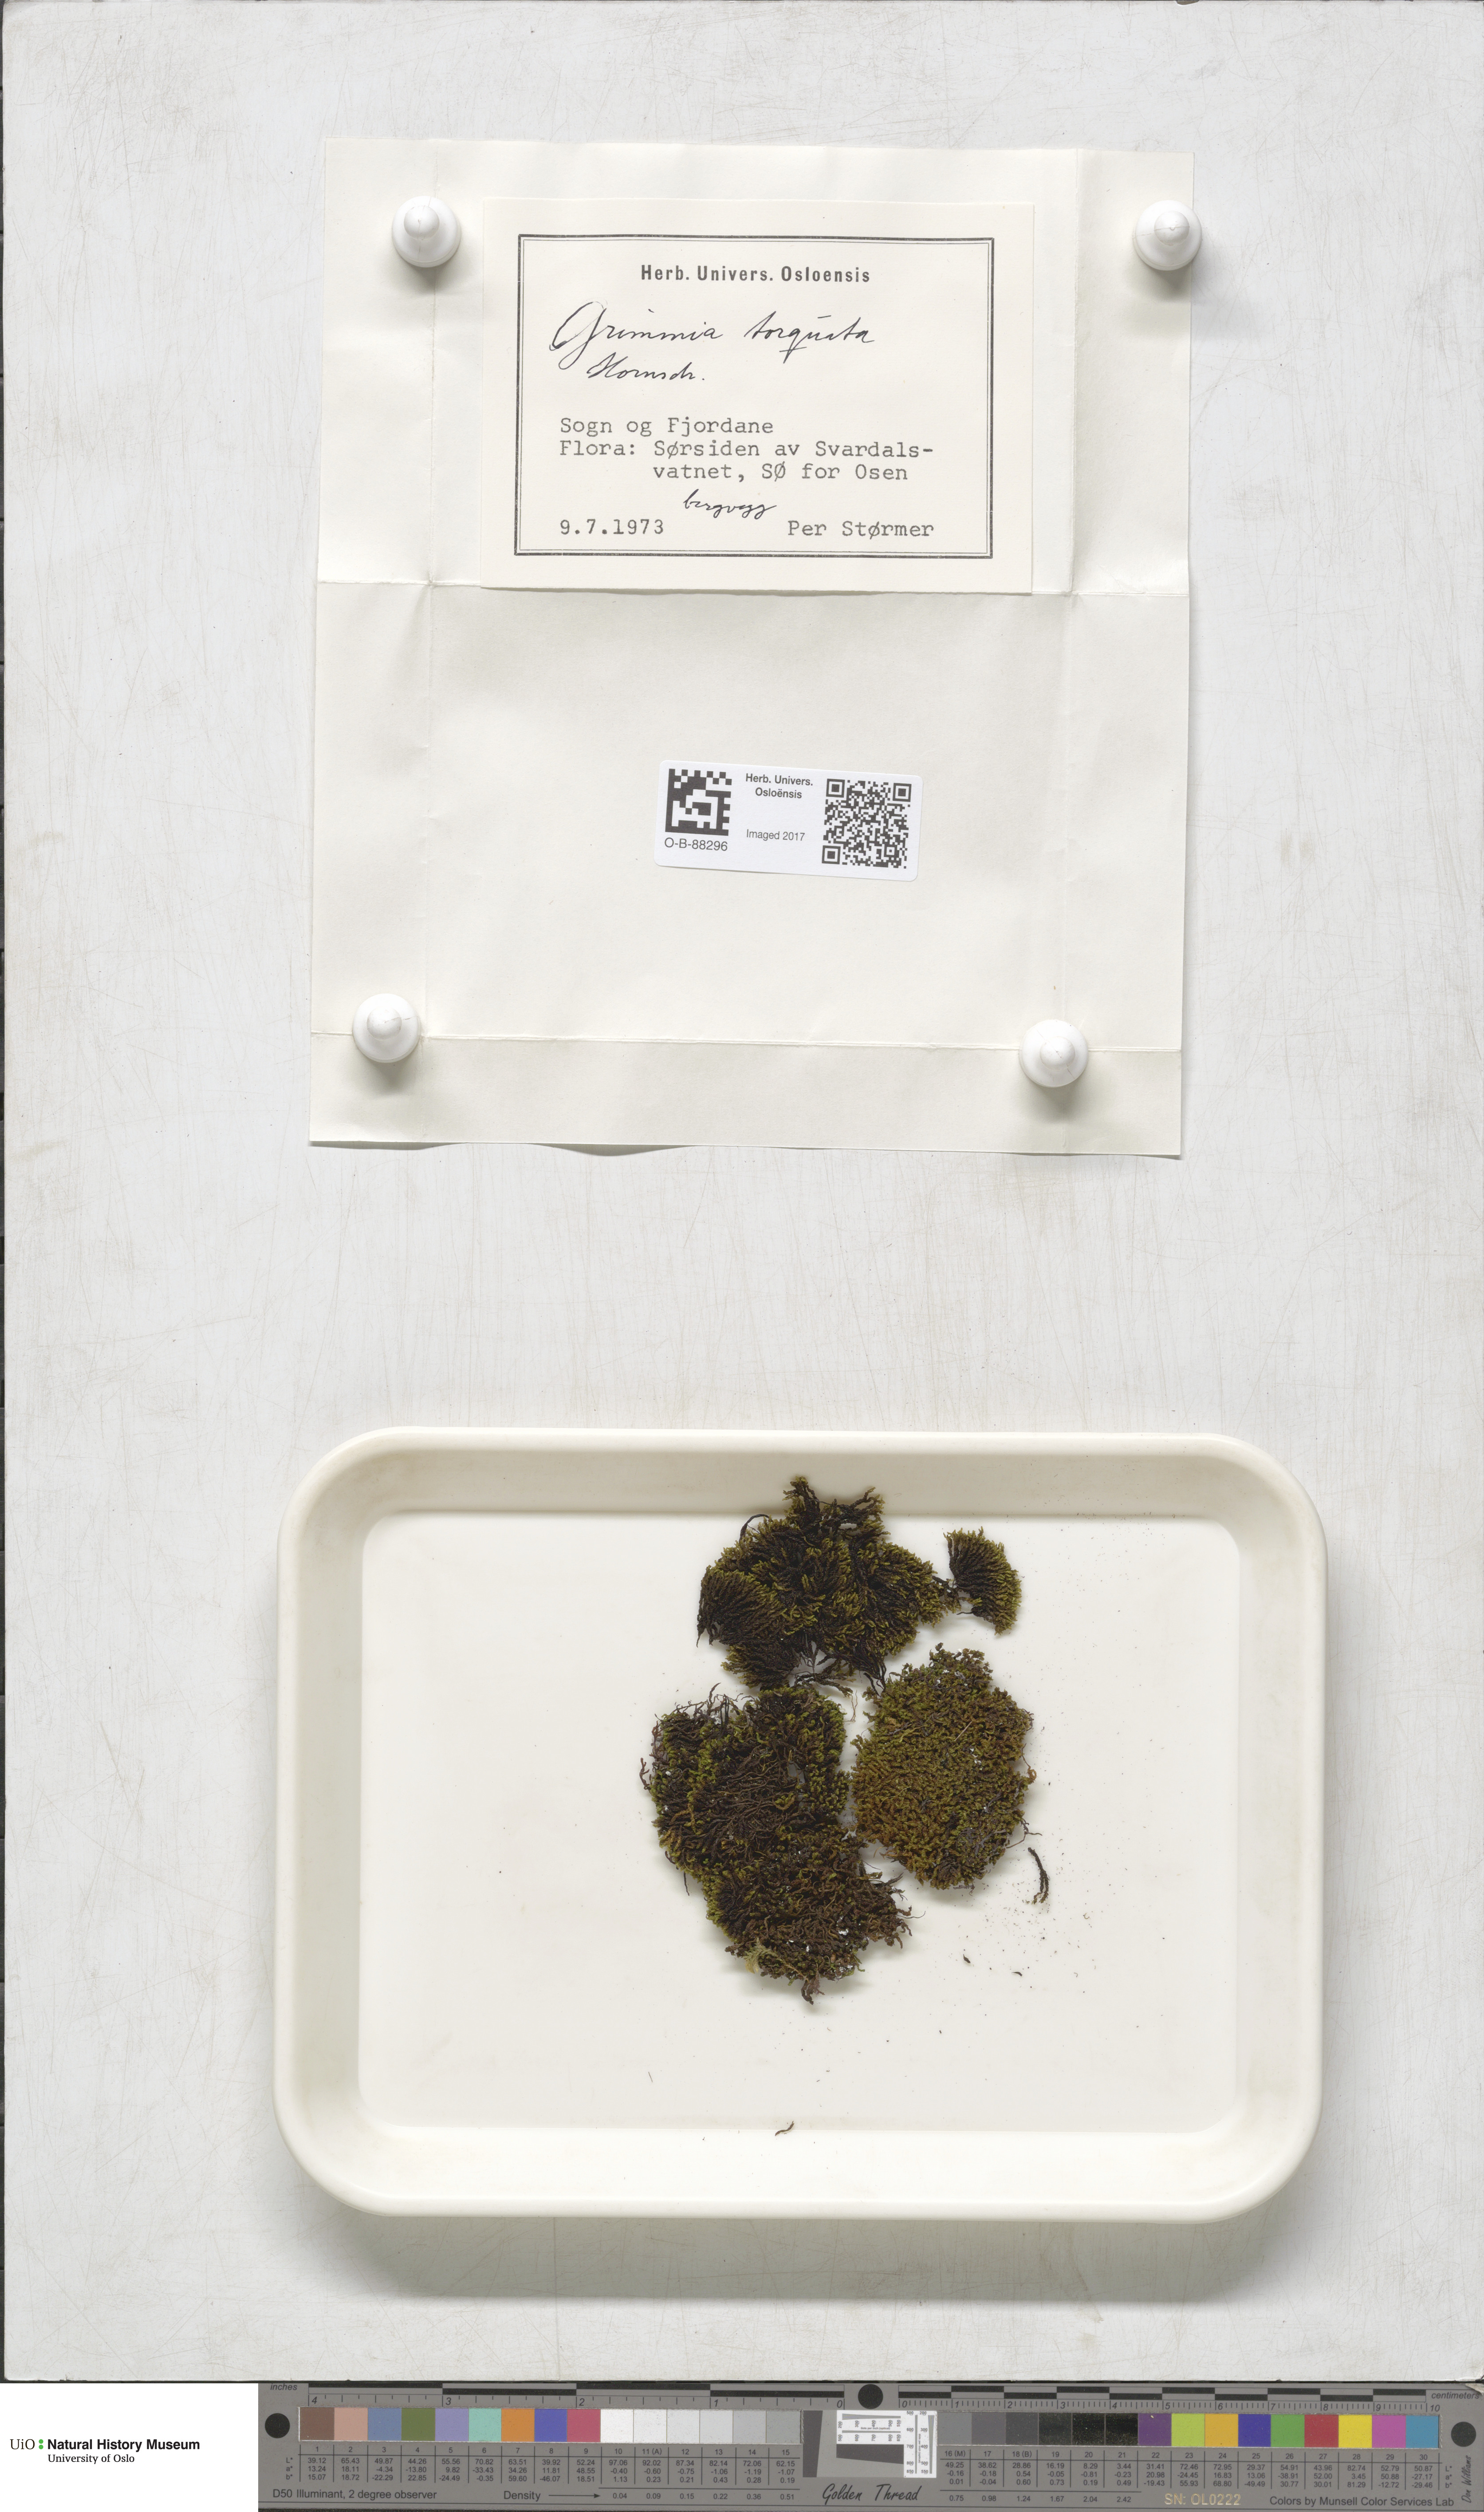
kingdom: Plantae
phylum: Bryophyta
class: Bryopsida
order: Grimmiales
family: Grimmiaceae
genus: Grimmia
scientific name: Grimmia torquata
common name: Twisted grimmia
